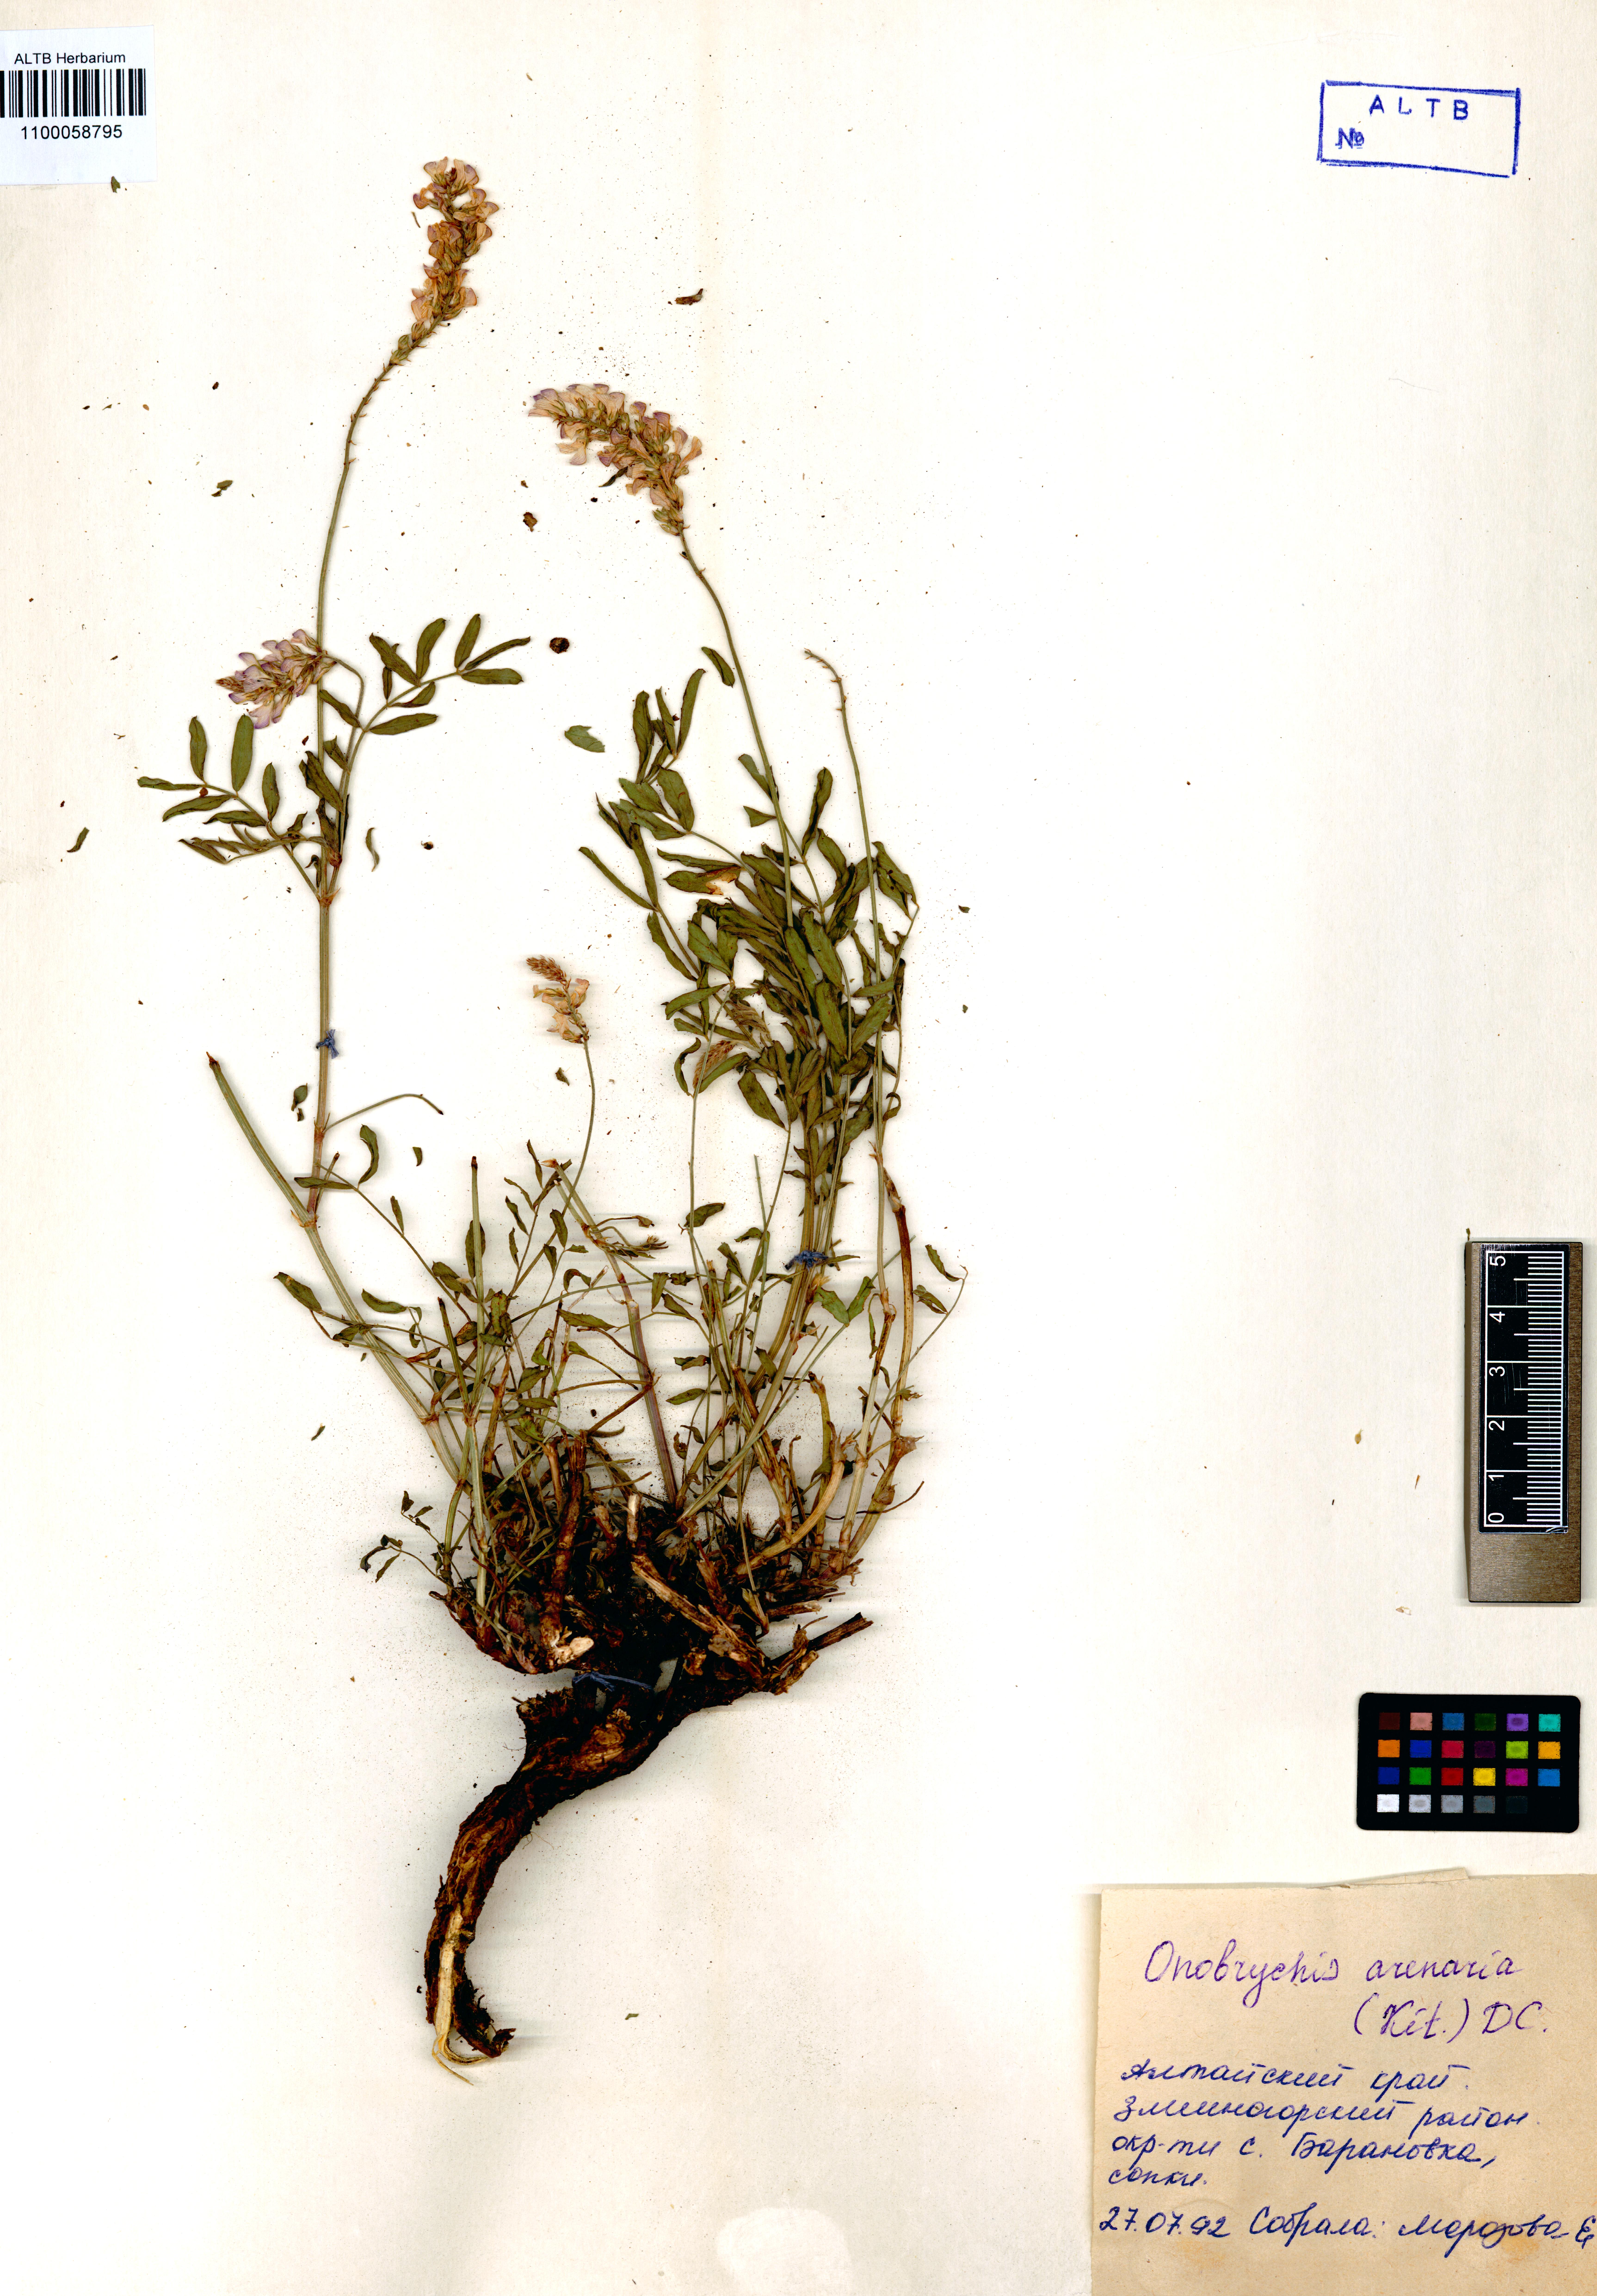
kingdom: Plantae
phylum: Tracheophyta
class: Magnoliopsida
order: Fabales
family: Fabaceae
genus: Onobrychis
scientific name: Onobrychis arenaria
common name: Sand esparcet
